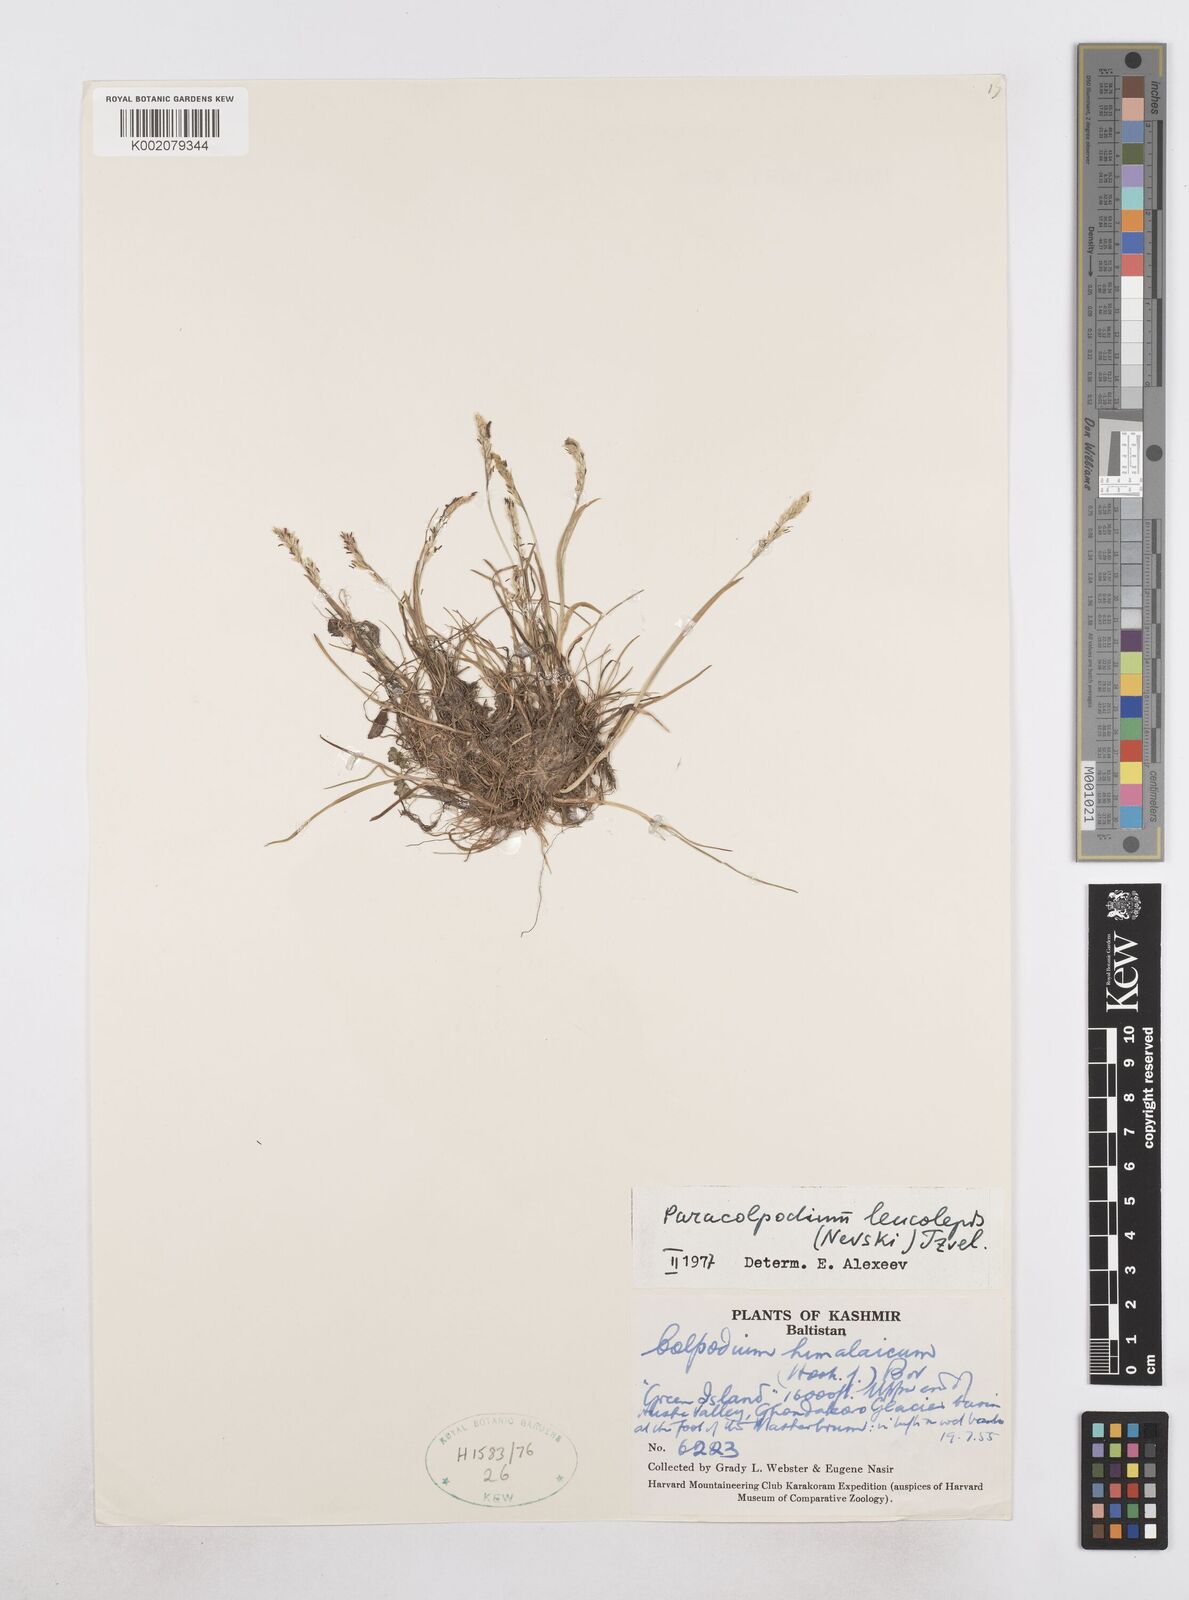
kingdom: Plantae
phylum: Tracheophyta
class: Liliopsida
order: Poales
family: Poaceae
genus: Paracolpodium
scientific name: Paracolpodium altaicum
